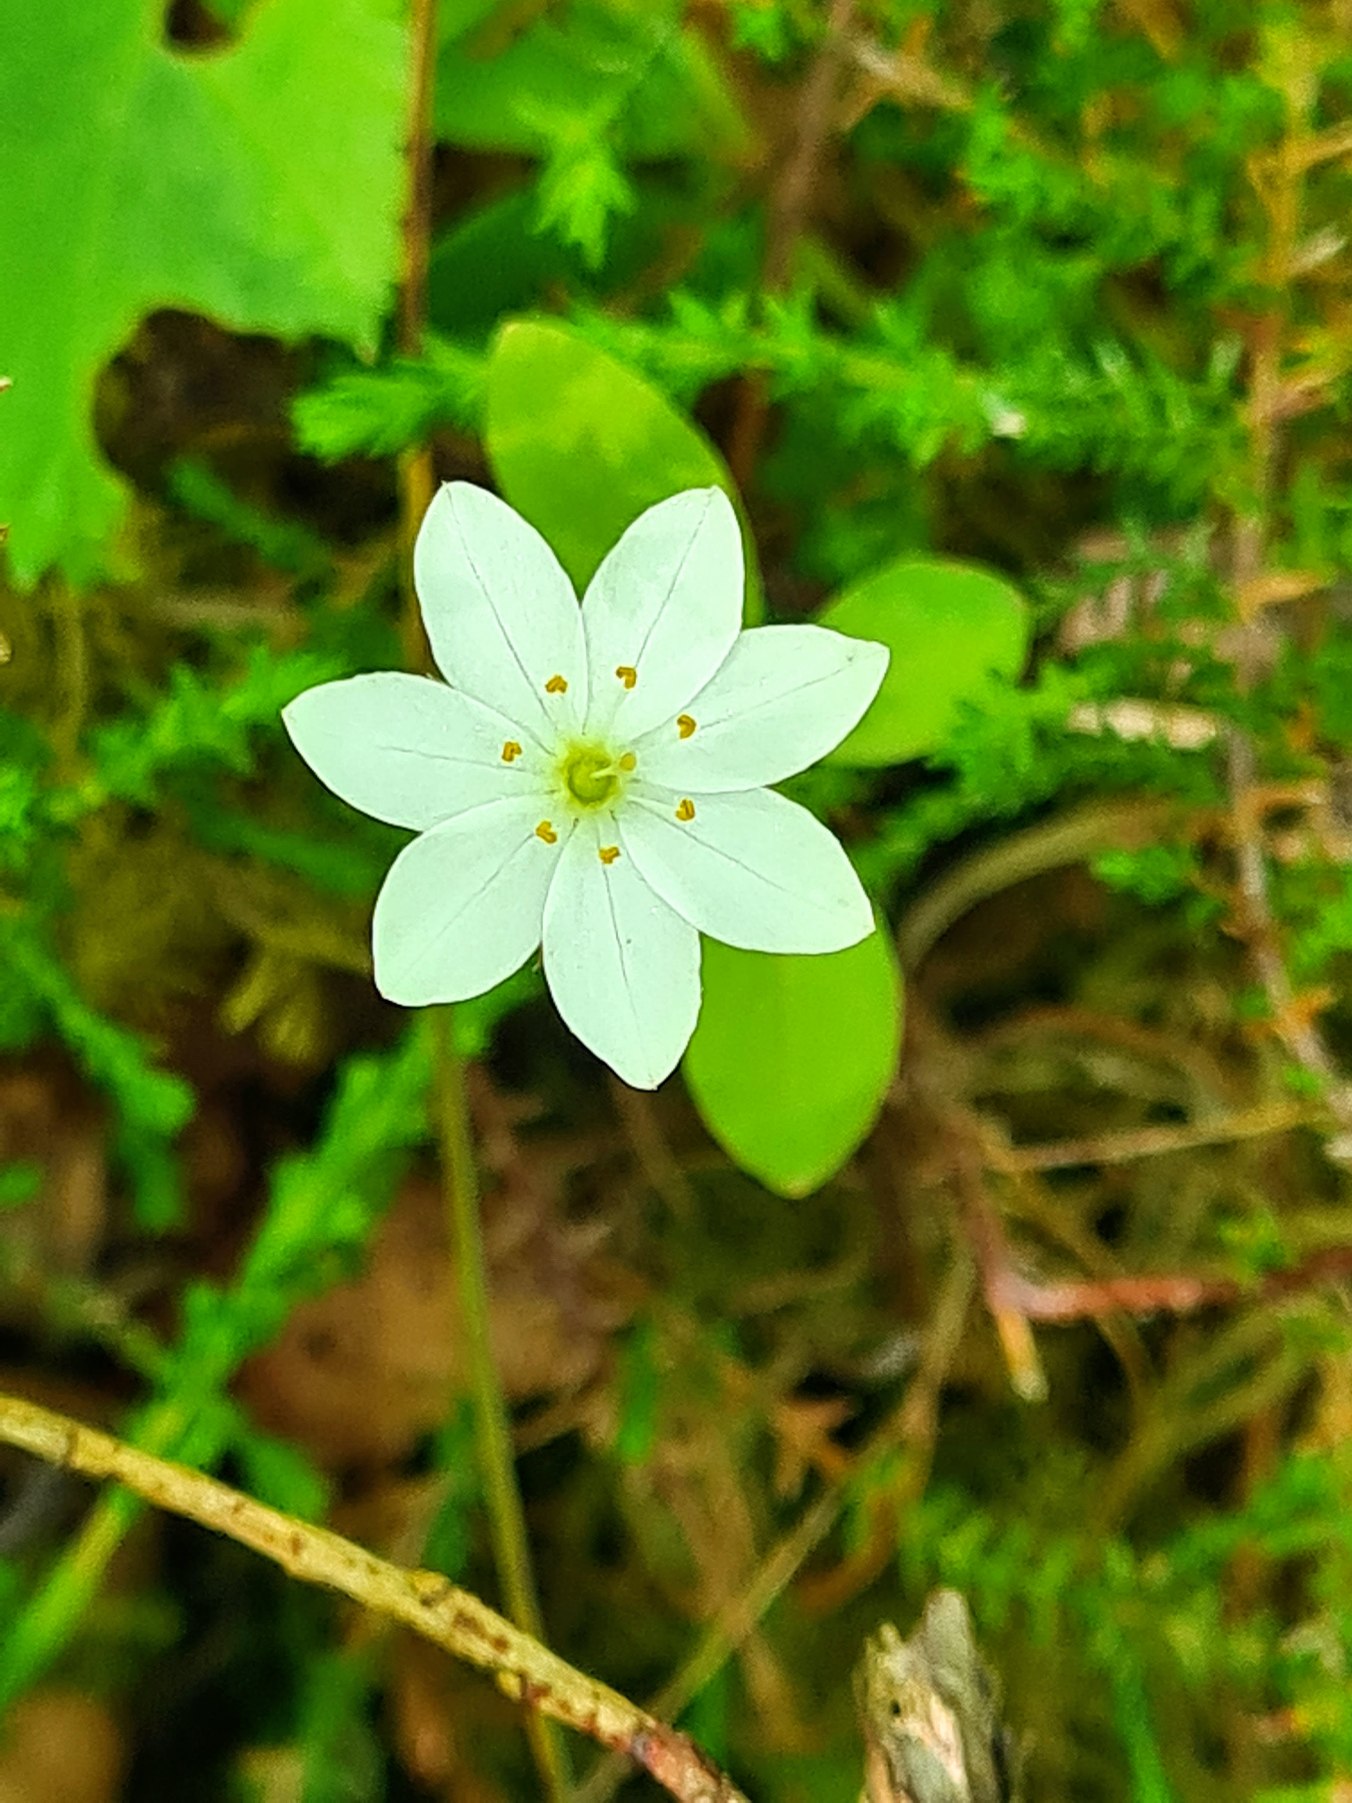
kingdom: Plantae
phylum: Tracheophyta
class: Magnoliopsida
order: Ericales
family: Primulaceae
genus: Lysimachia
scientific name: Lysimachia europaea
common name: Skovstjerne
